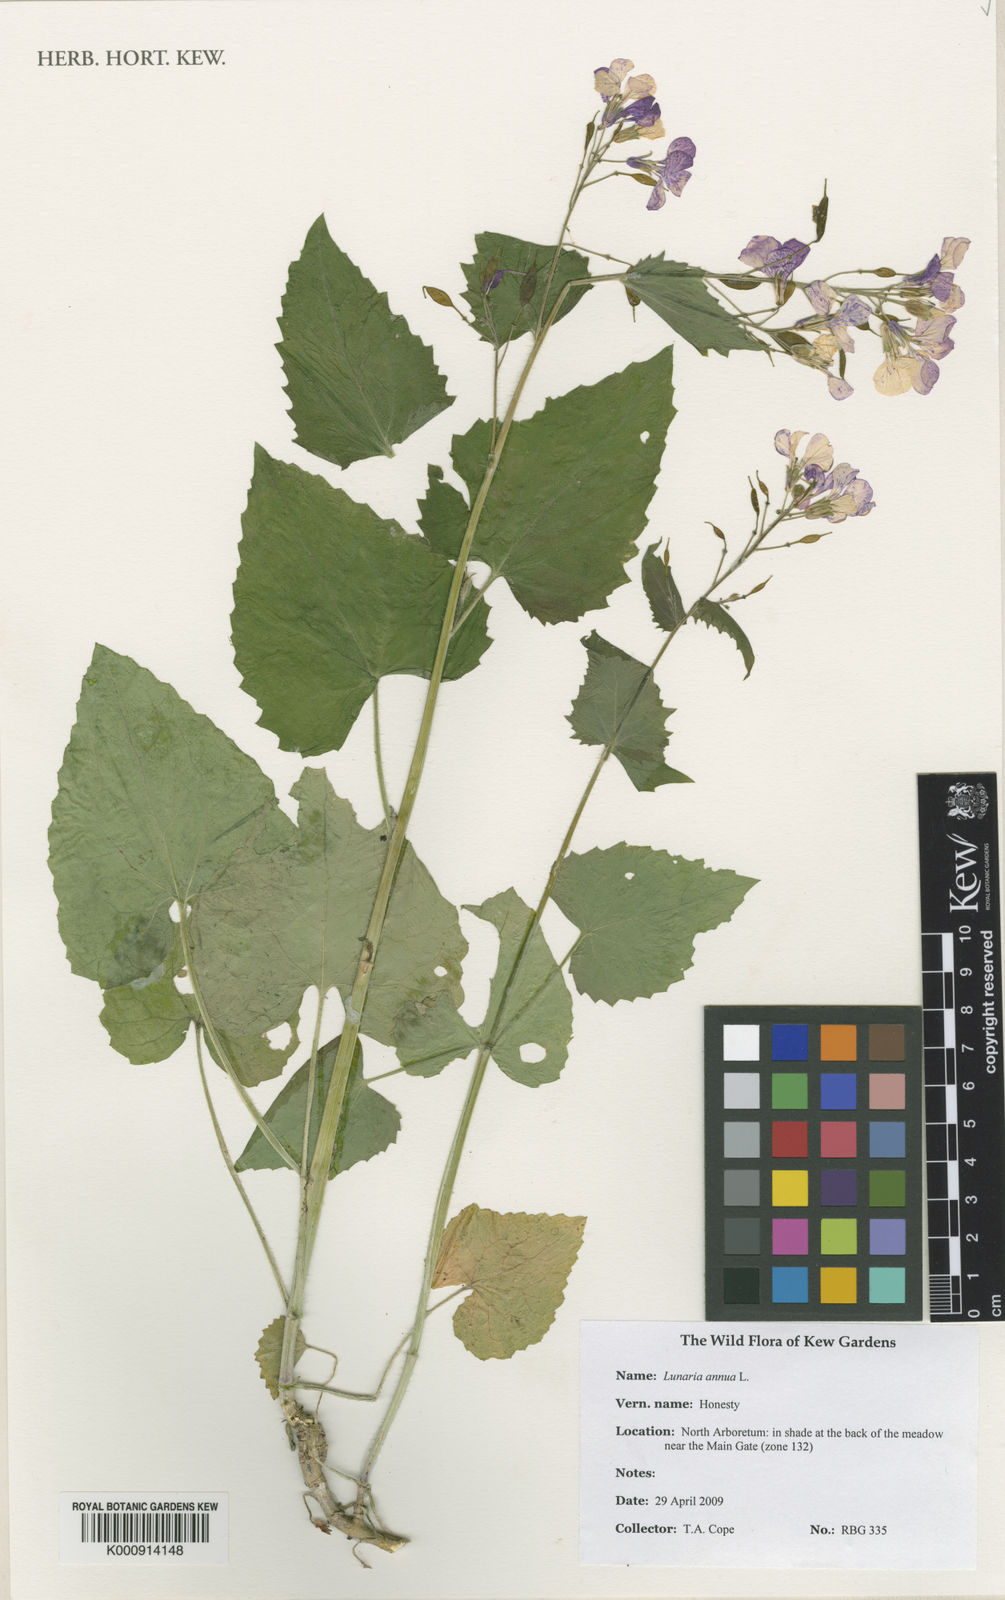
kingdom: Plantae
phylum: Tracheophyta
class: Magnoliopsida
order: Brassicales
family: Brassicaceae
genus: Lunaria
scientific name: Lunaria annua
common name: Honesty
